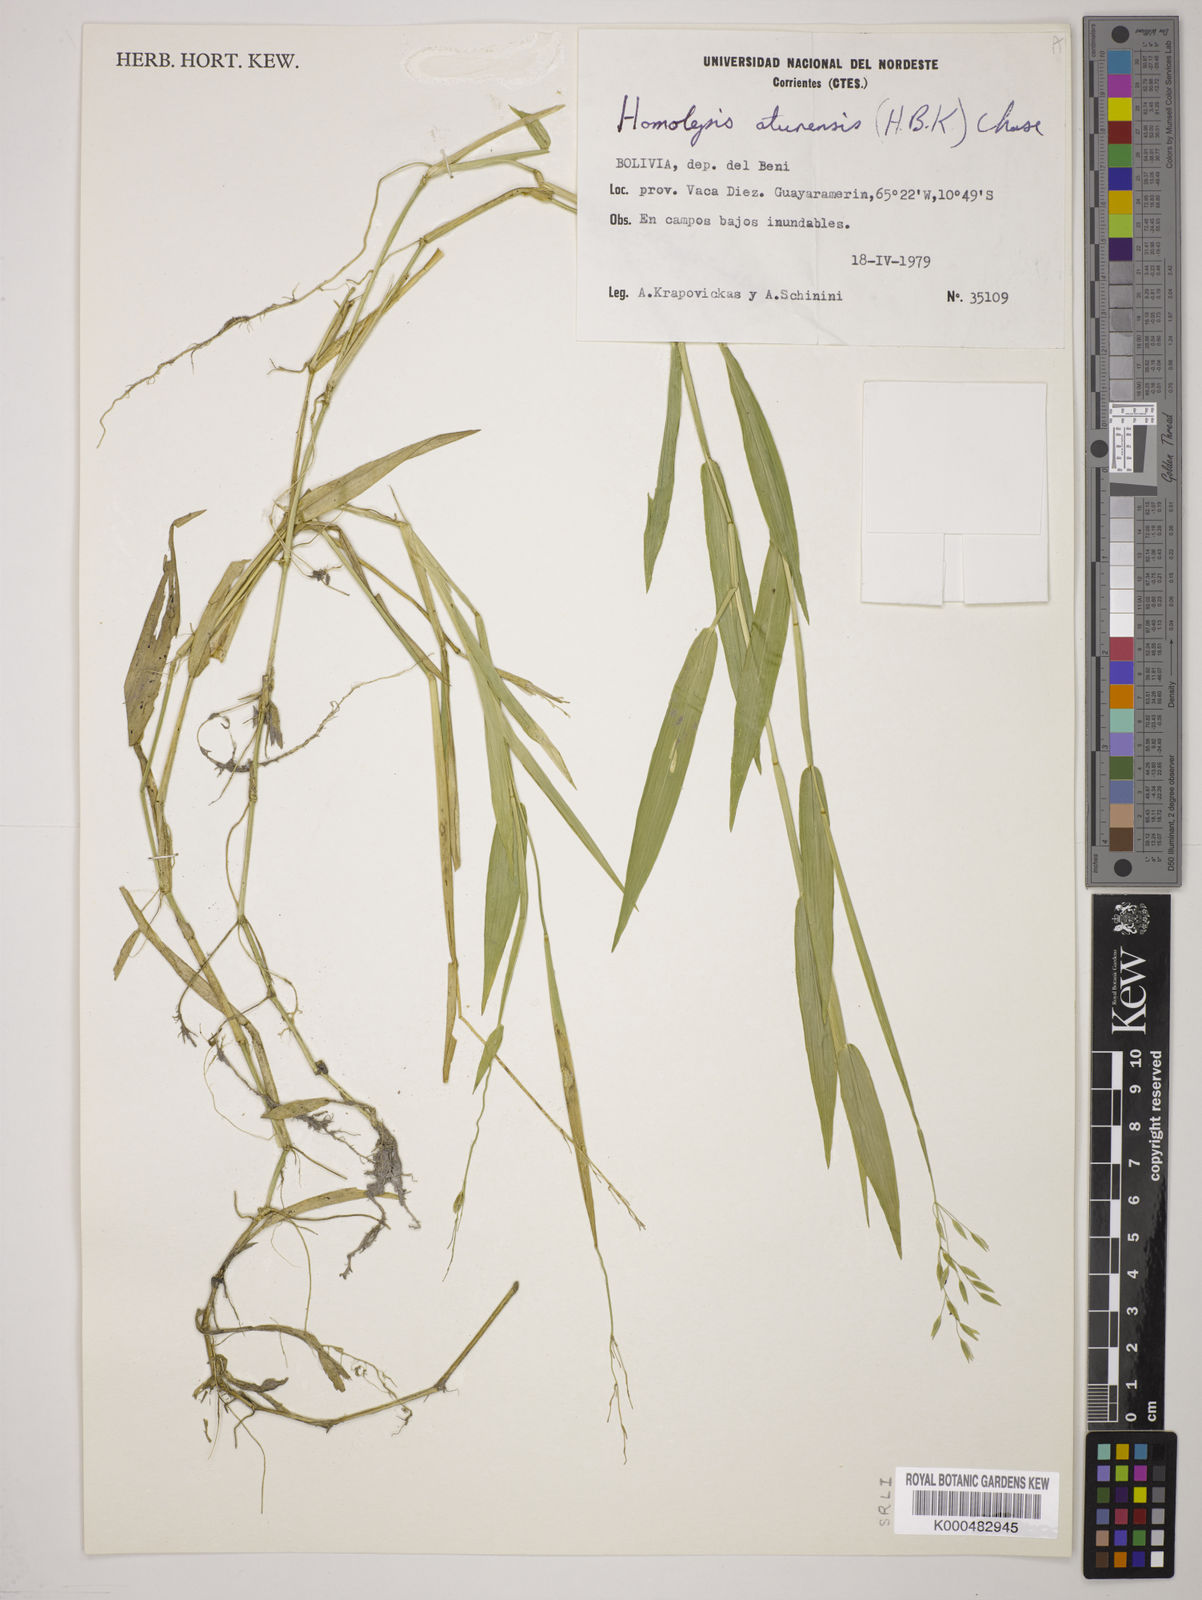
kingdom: Plantae
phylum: Tracheophyta
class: Liliopsida
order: Poales
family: Poaceae
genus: Homolepis
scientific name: Homolepis aturensis
